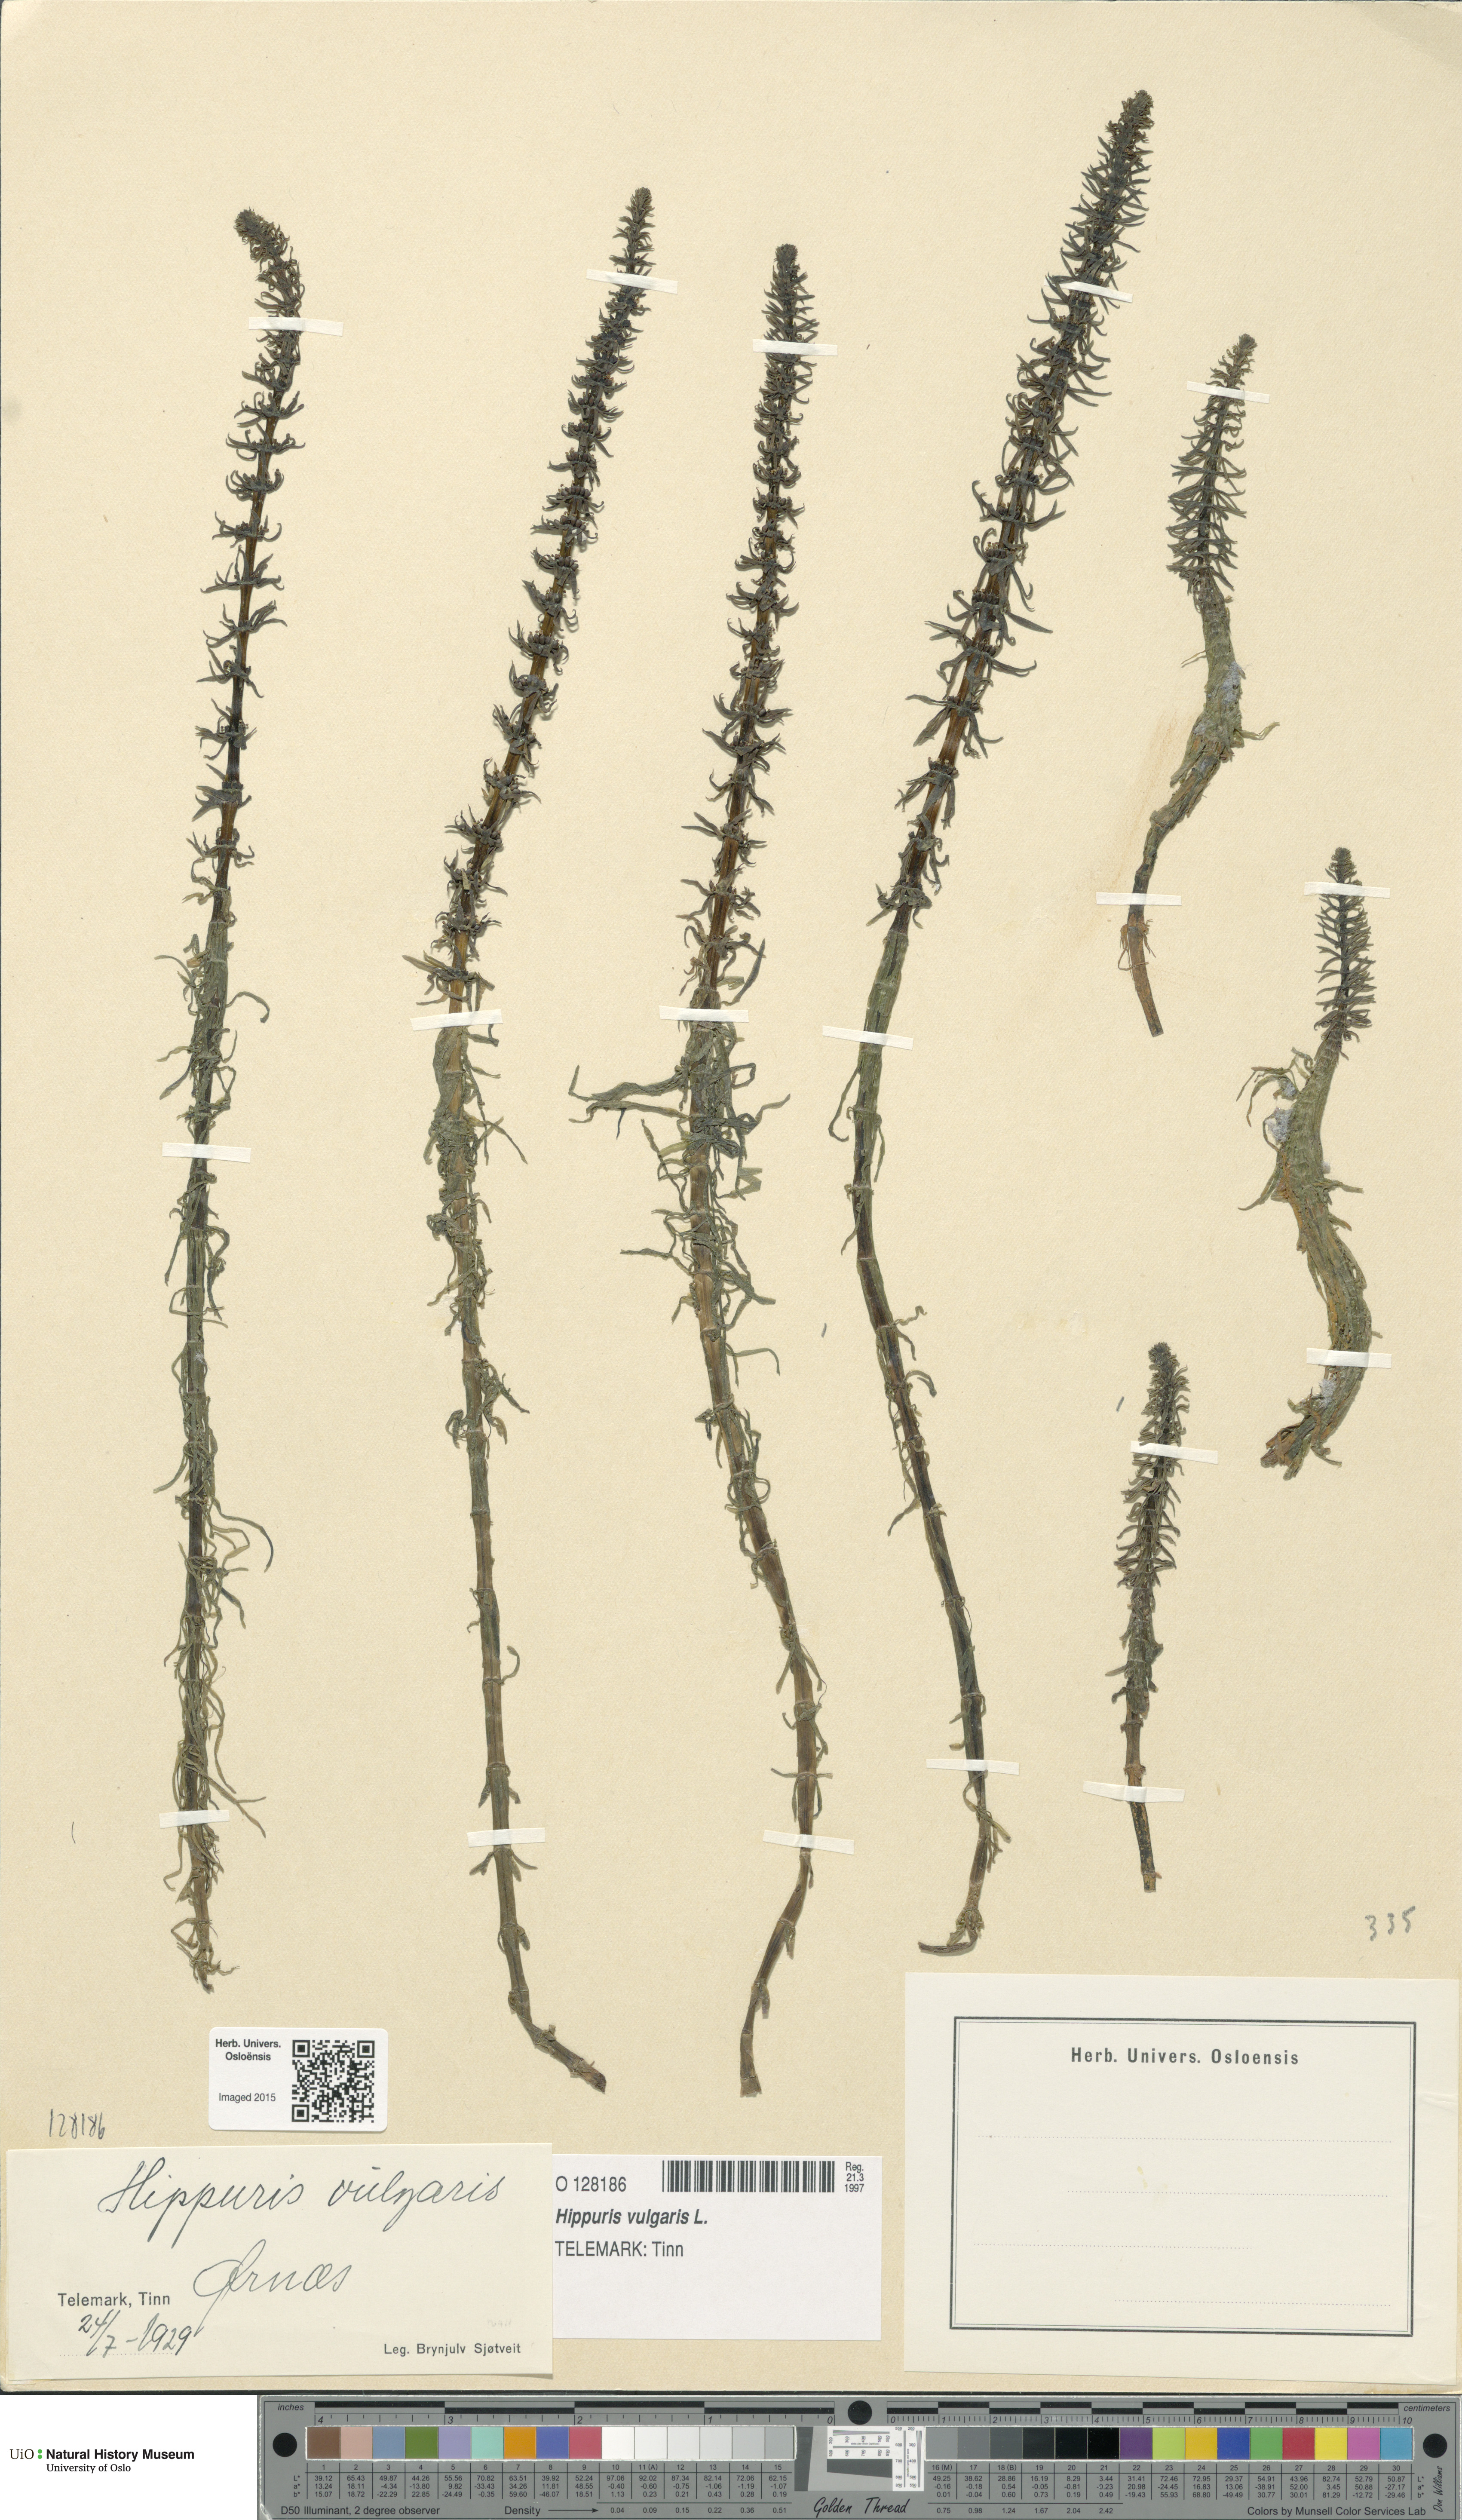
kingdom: Plantae
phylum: Tracheophyta
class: Magnoliopsida
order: Lamiales
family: Plantaginaceae
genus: Hippuris
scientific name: Hippuris vulgaris
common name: Mare's-tail
